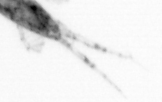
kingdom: Animalia
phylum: Arthropoda
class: Copepoda
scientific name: Copepoda
